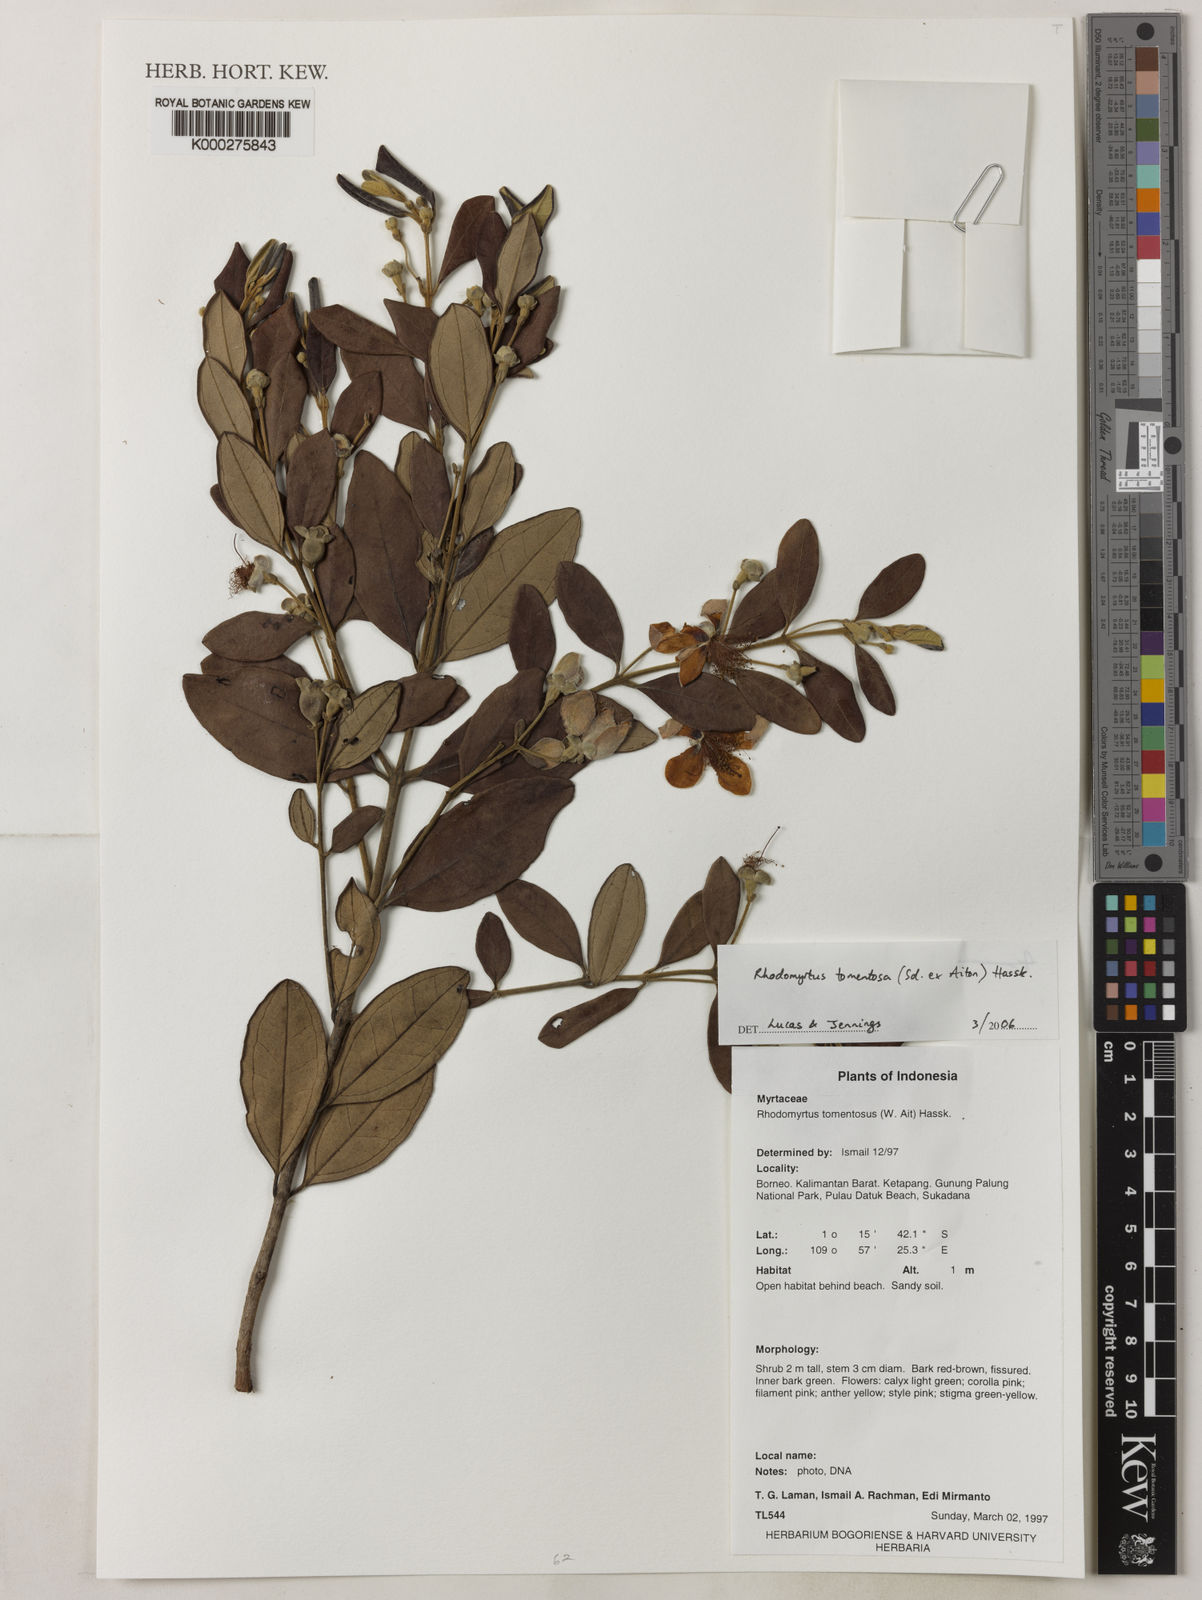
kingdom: Plantae
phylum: Tracheophyta
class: Magnoliopsida
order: Myrtales
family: Myrtaceae
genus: Rhodomyrtus
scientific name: Rhodomyrtus tomentosa
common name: Rose myrtle
